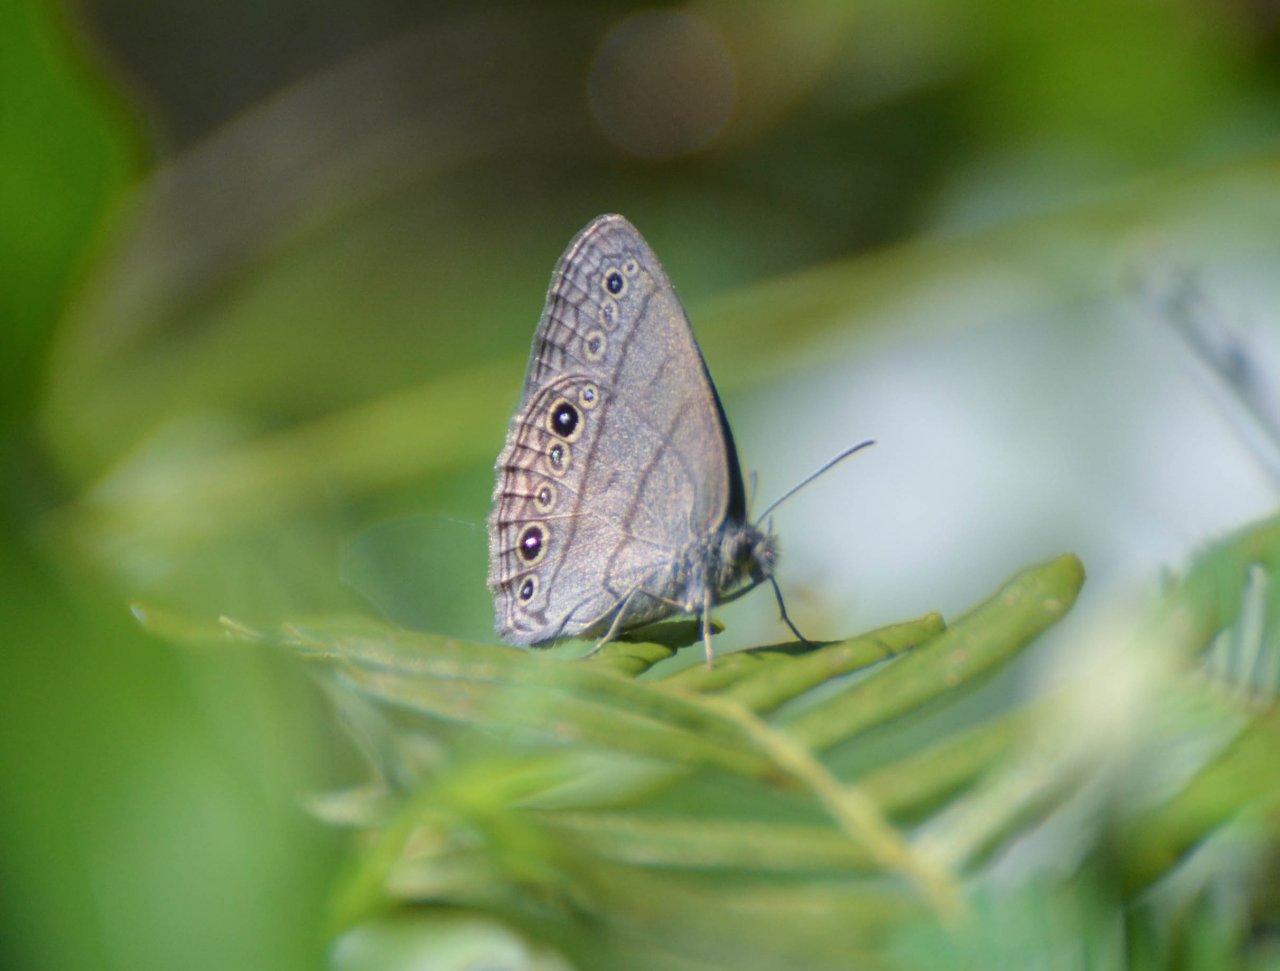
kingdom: Animalia
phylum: Arthropoda
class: Insecta
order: Lepidoptera
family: Nymphalidae
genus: Hermeuptychia
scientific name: Hermeuptychia hermes
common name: Carolina Satyr
